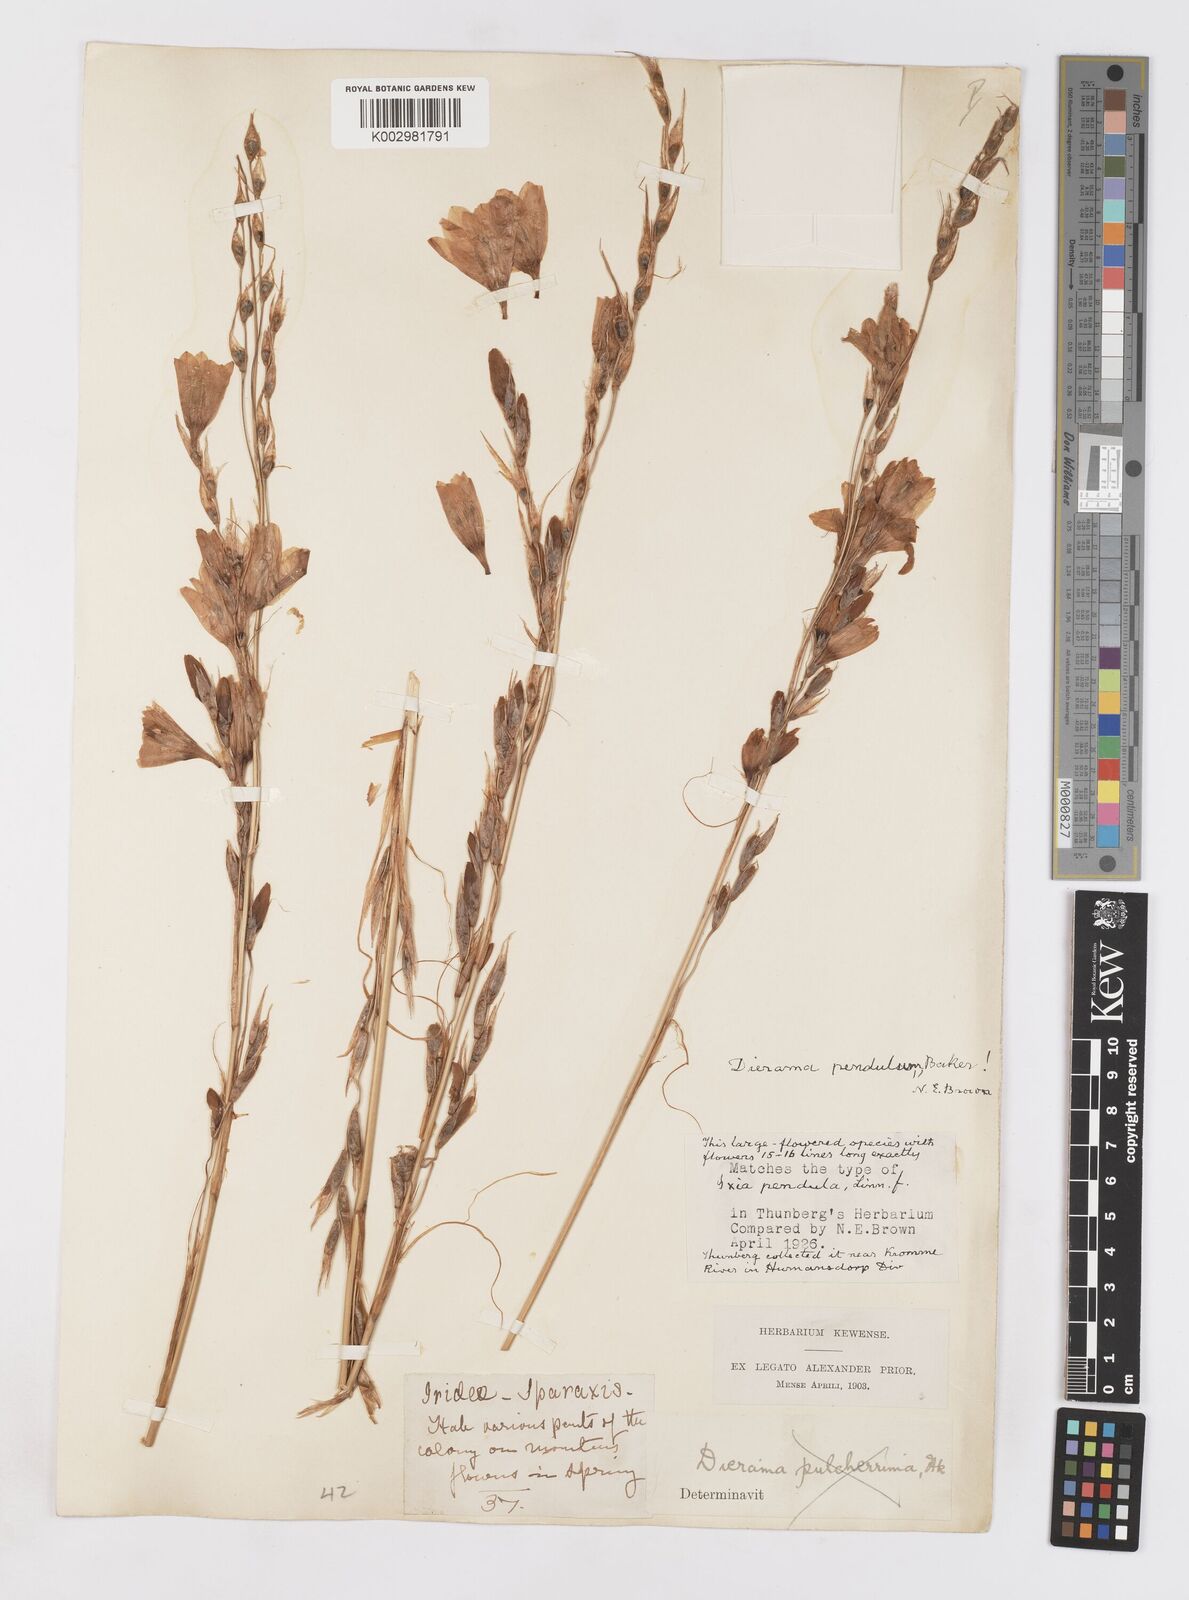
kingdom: Plantae
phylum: Tracheophyta
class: Liliopsida
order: Asparagales
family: Iridaceae
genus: Dierama
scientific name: Dierama pendulum
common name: Grassy-bell
